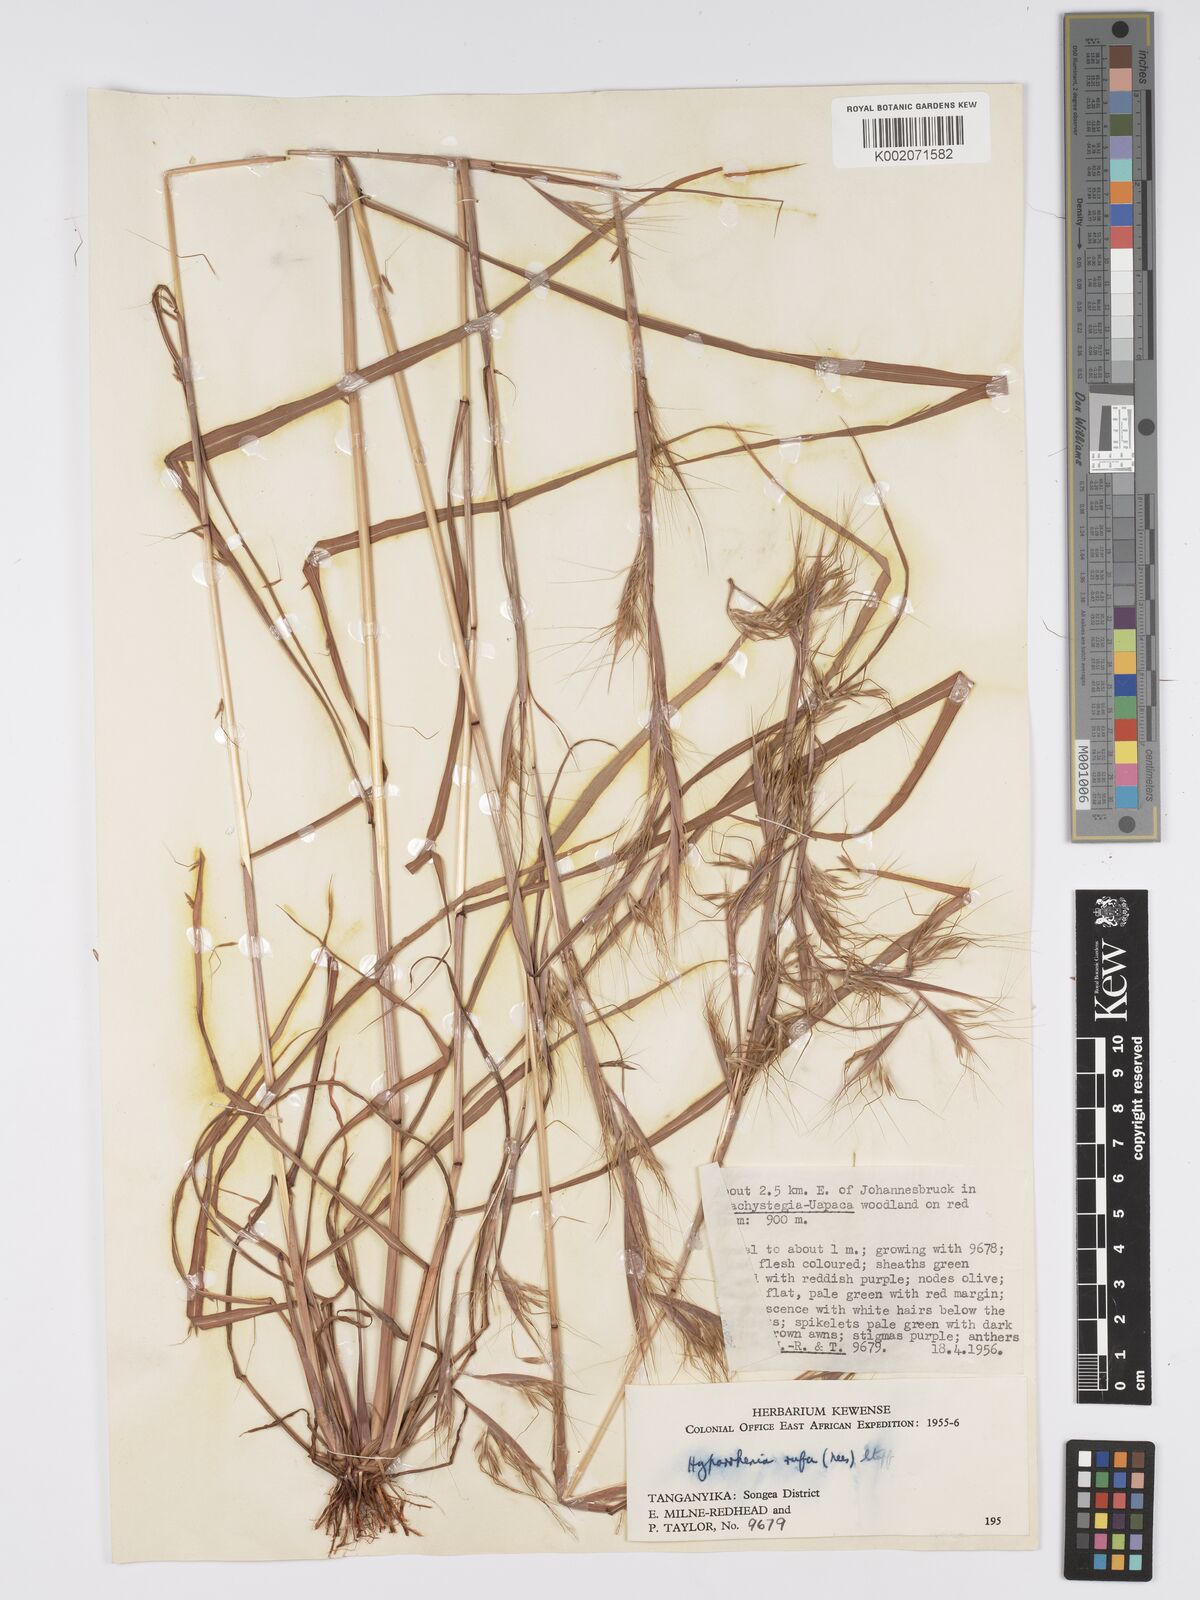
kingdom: Plantae
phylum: Tracheophyta
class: Liliopsida
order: Poales
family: Poaceae
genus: Hyparrhenia
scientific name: Hyparrhenia rufa
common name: Jaraguagrass
